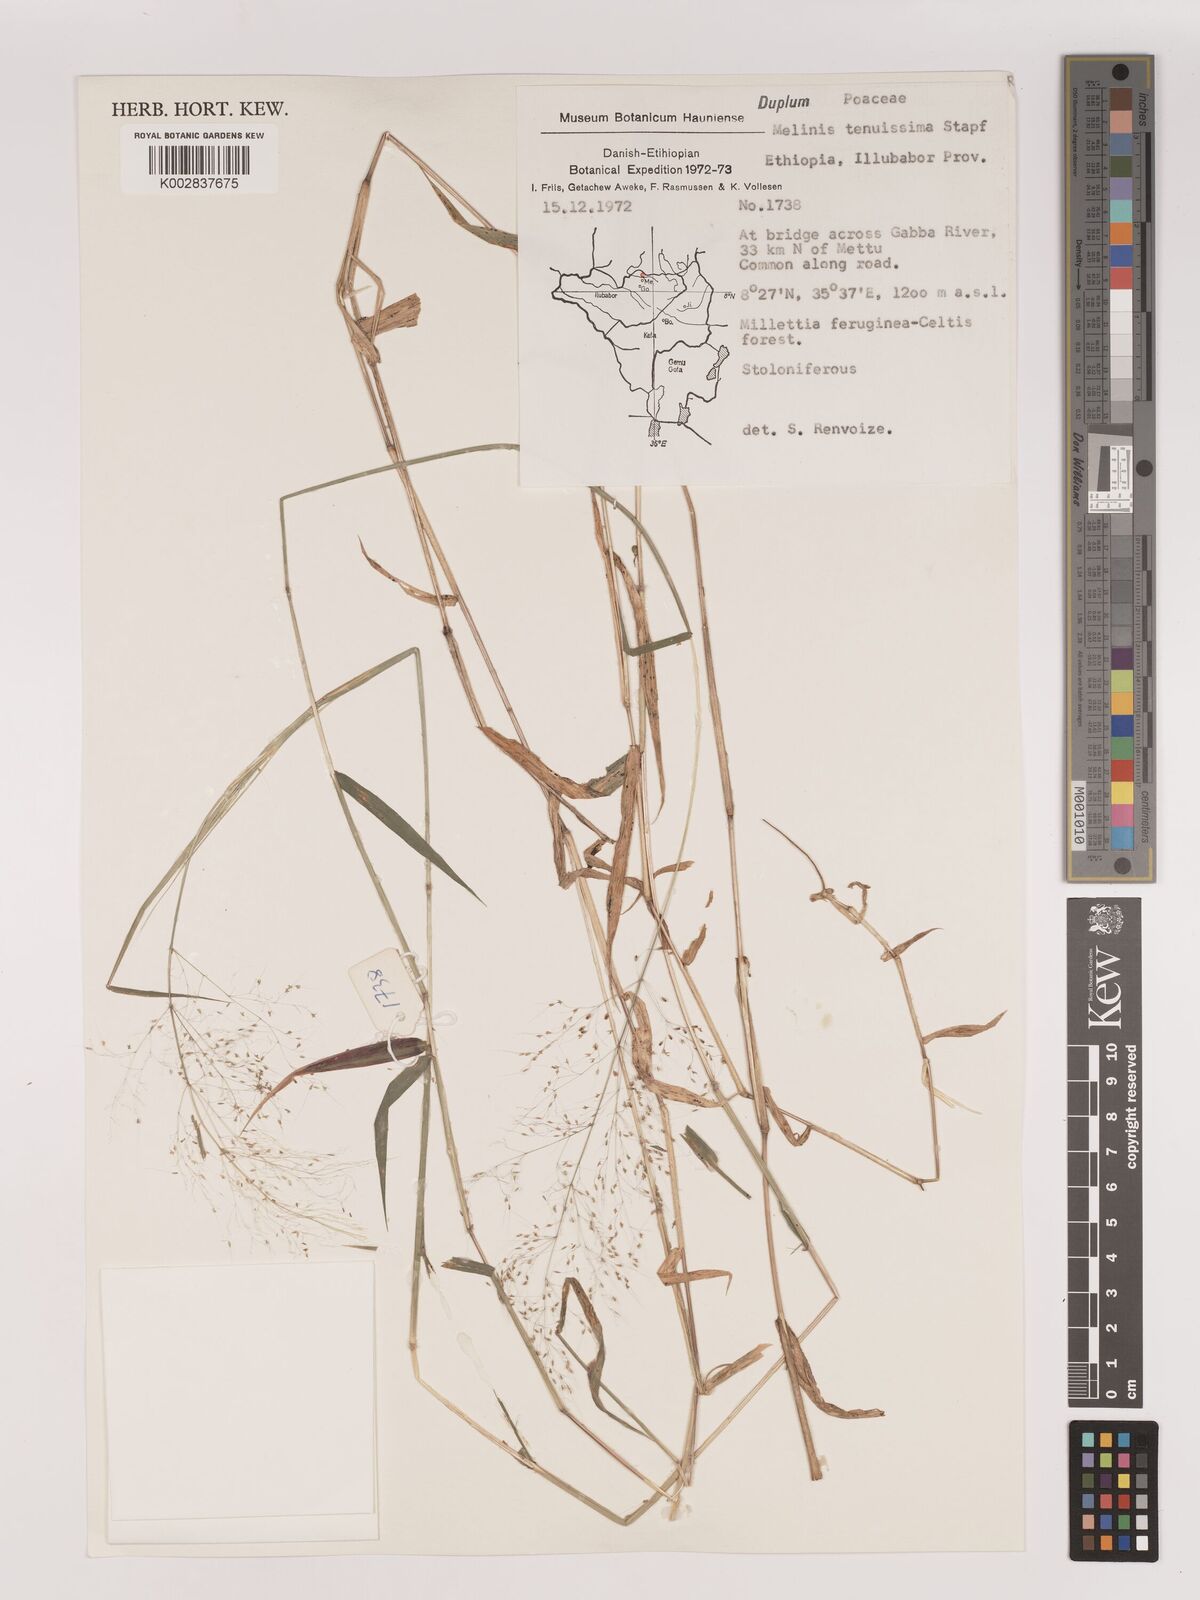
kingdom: Plantae
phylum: Tracheophyta
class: Liliopsida
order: Poales
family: Poaceae
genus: Melinis
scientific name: Melinis tenuissima
